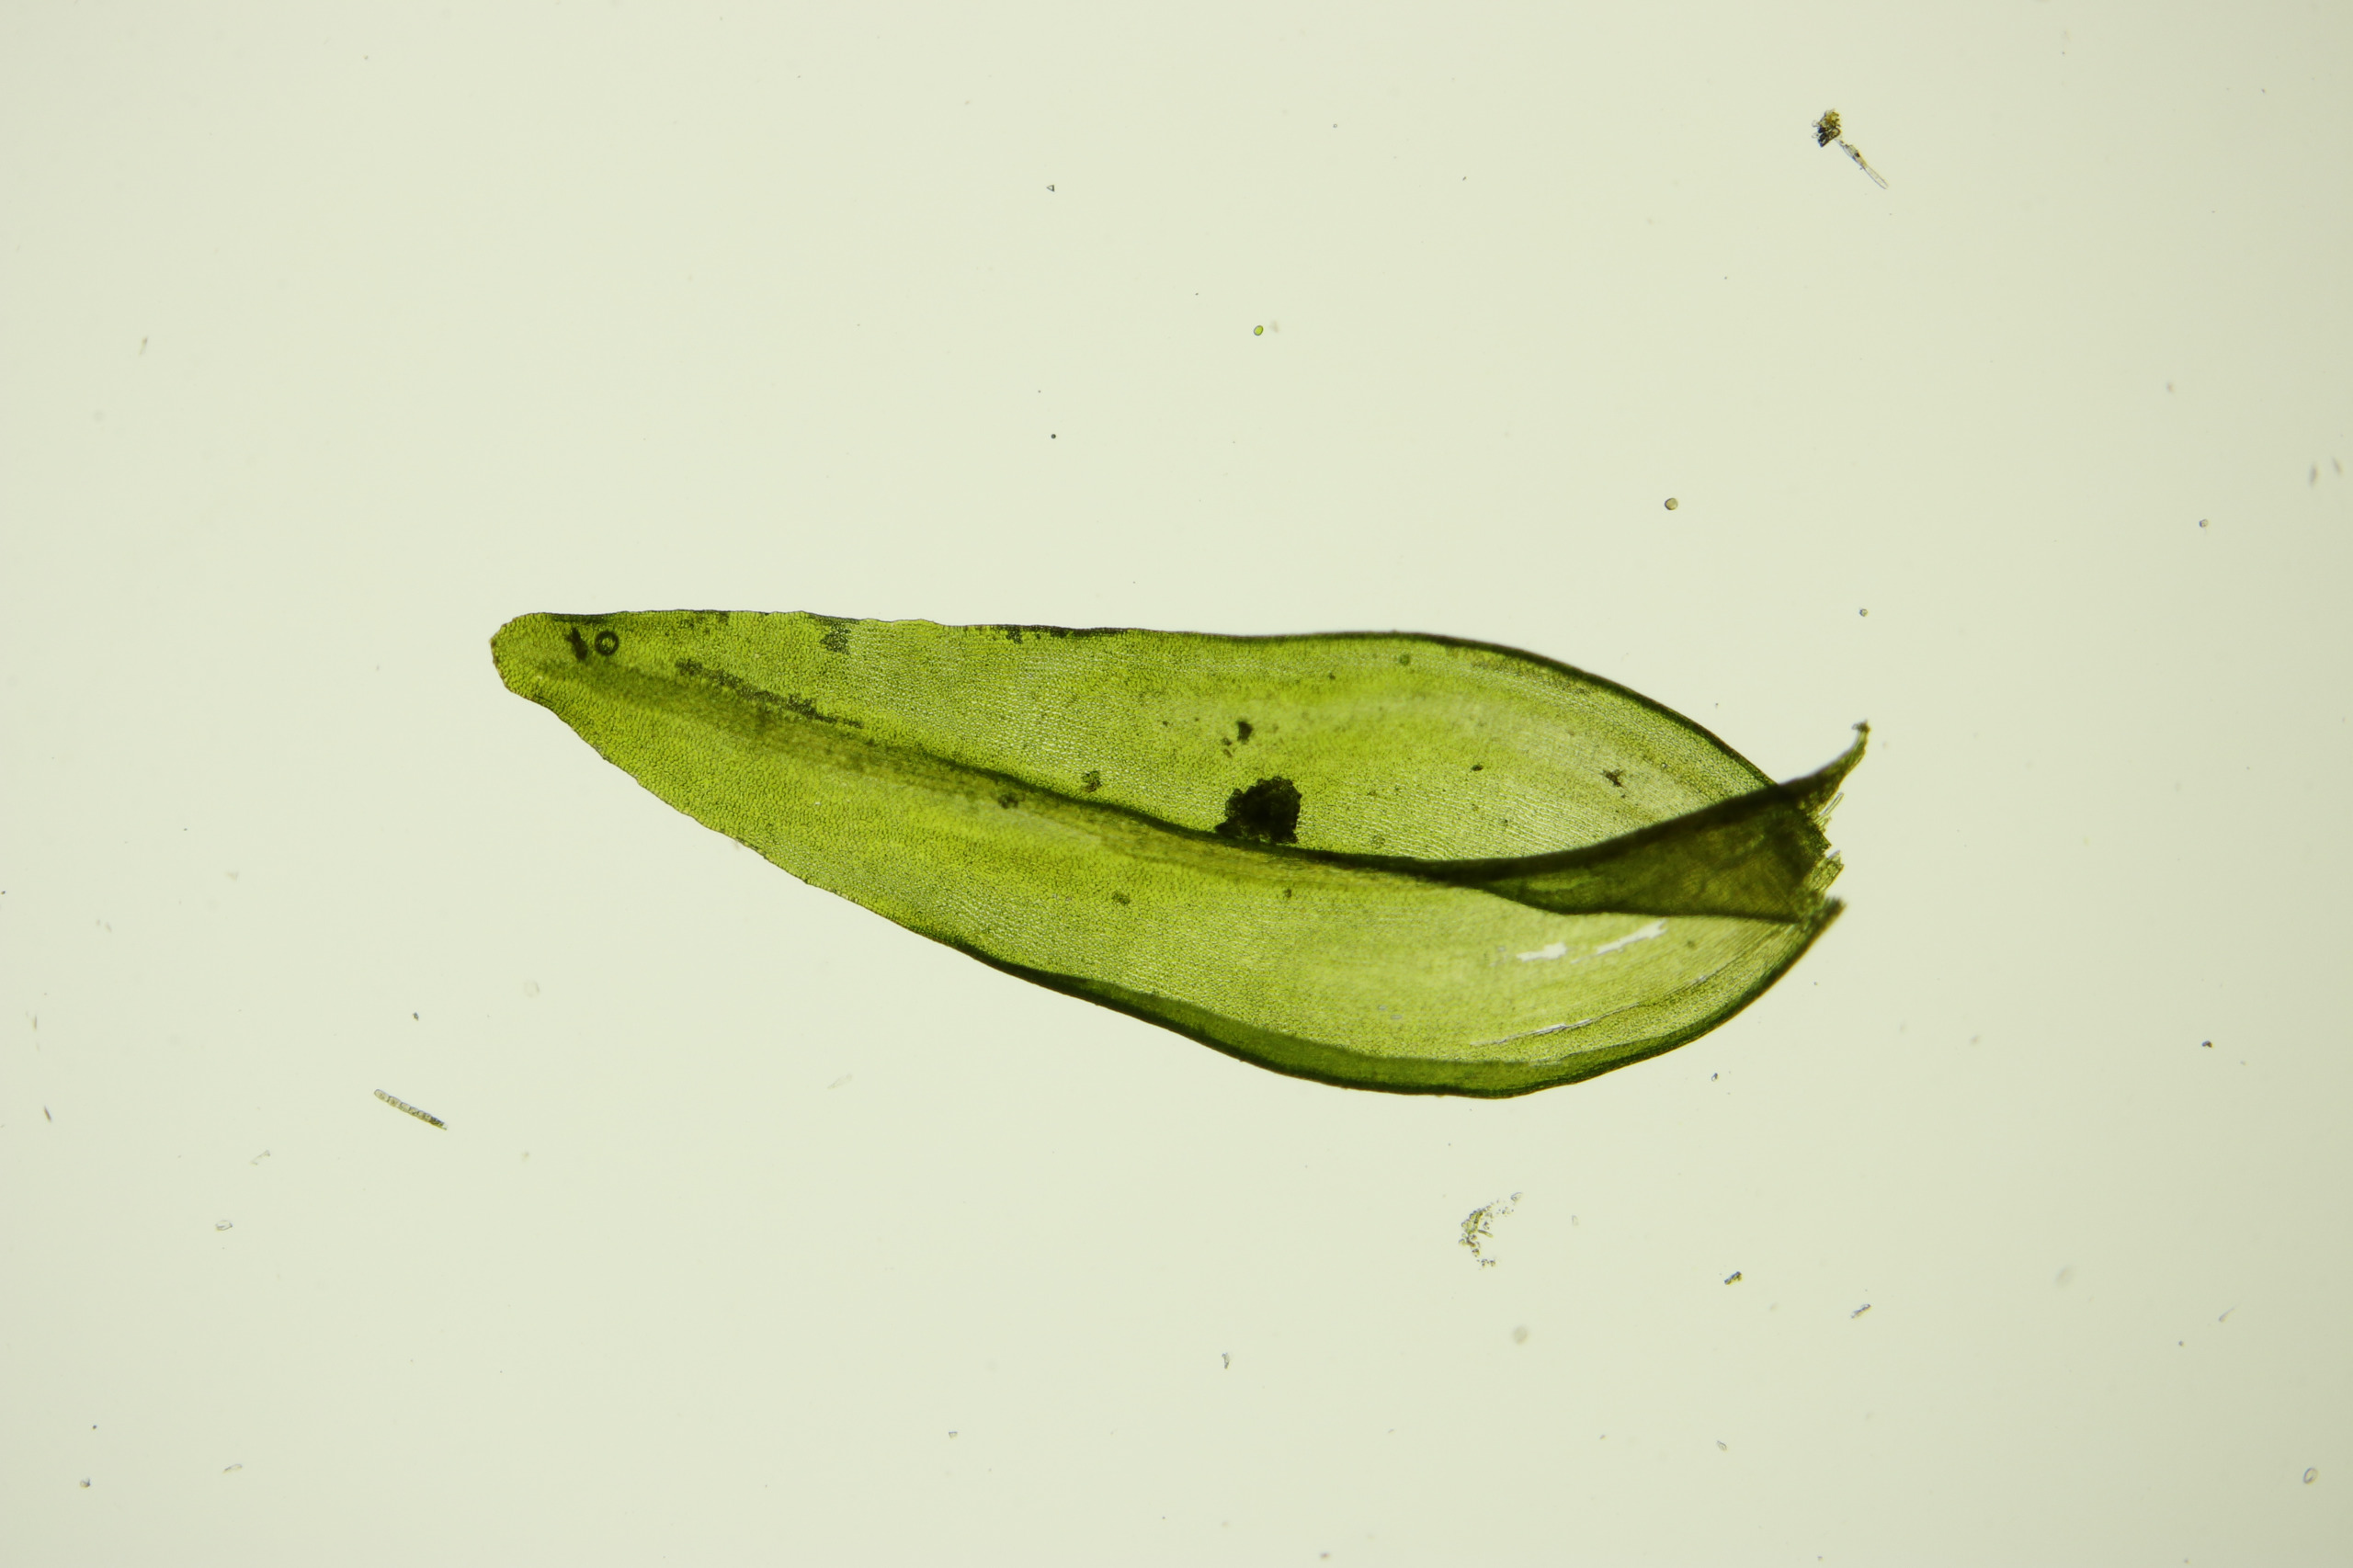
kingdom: Plantae
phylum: Bryophyta
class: Bryopsida
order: Grimmiales
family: Grimmiaceae
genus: Codriophorus
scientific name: Codriophorus acicularis
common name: Butbladet børstemos
